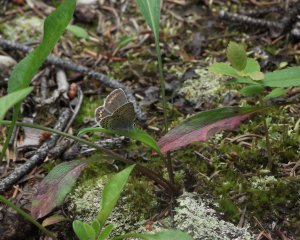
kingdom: Animalia
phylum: Arthropoda
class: Insecta
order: Lepidoptera
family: Lycaenidae
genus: Lycaeides
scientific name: Lycaeides melissa
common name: Melissa Blue
